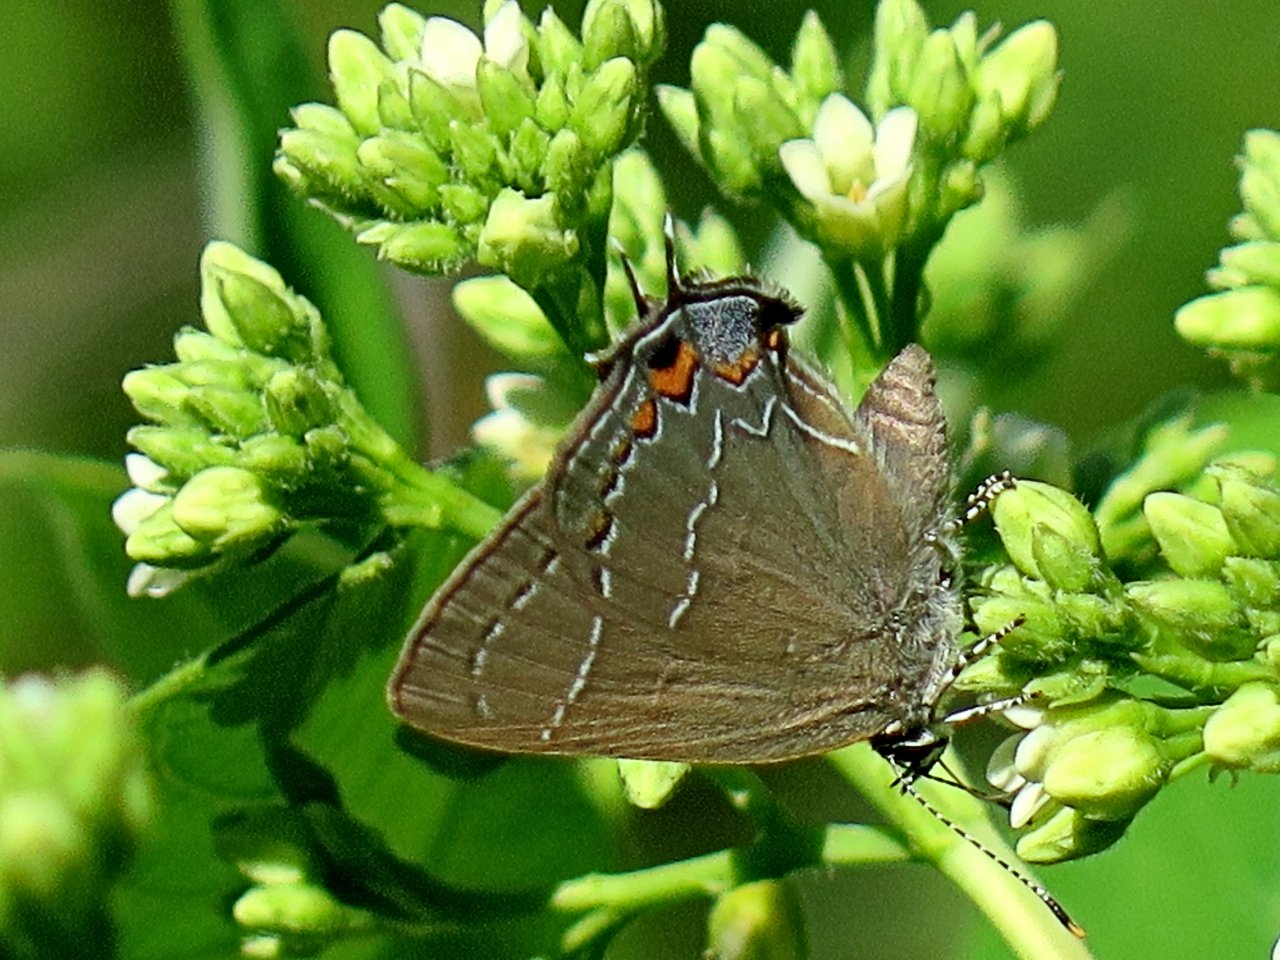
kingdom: Animalia
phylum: Arthropoda
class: Insecta
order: Lepidoptera
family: Lycaenidae
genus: Fixsenia
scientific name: Fixsenia favonius
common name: Oak Hairstreak
